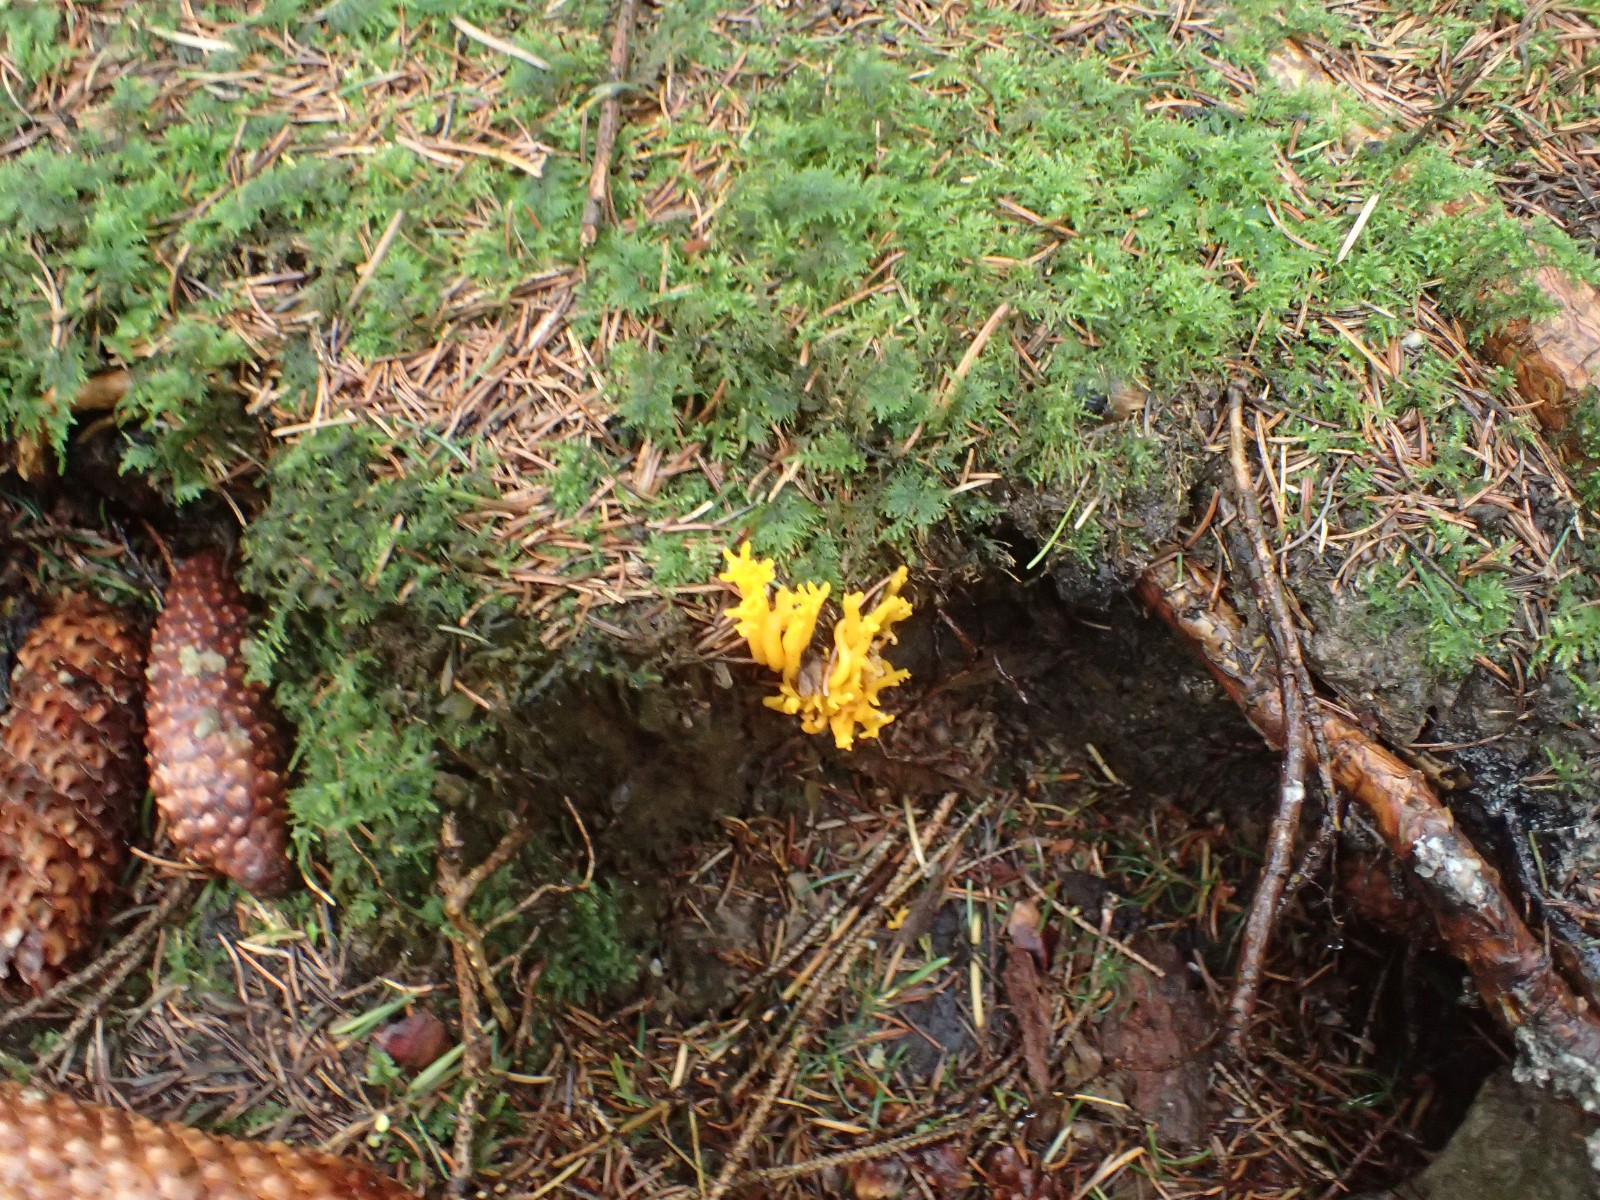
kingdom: Fungi
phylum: Basidiomycota
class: Dacrymycetes
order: Dacrymycetales
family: Dacrymycetaceae
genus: Calocera
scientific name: Calocera viscosa
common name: almindelig guldgaffel
